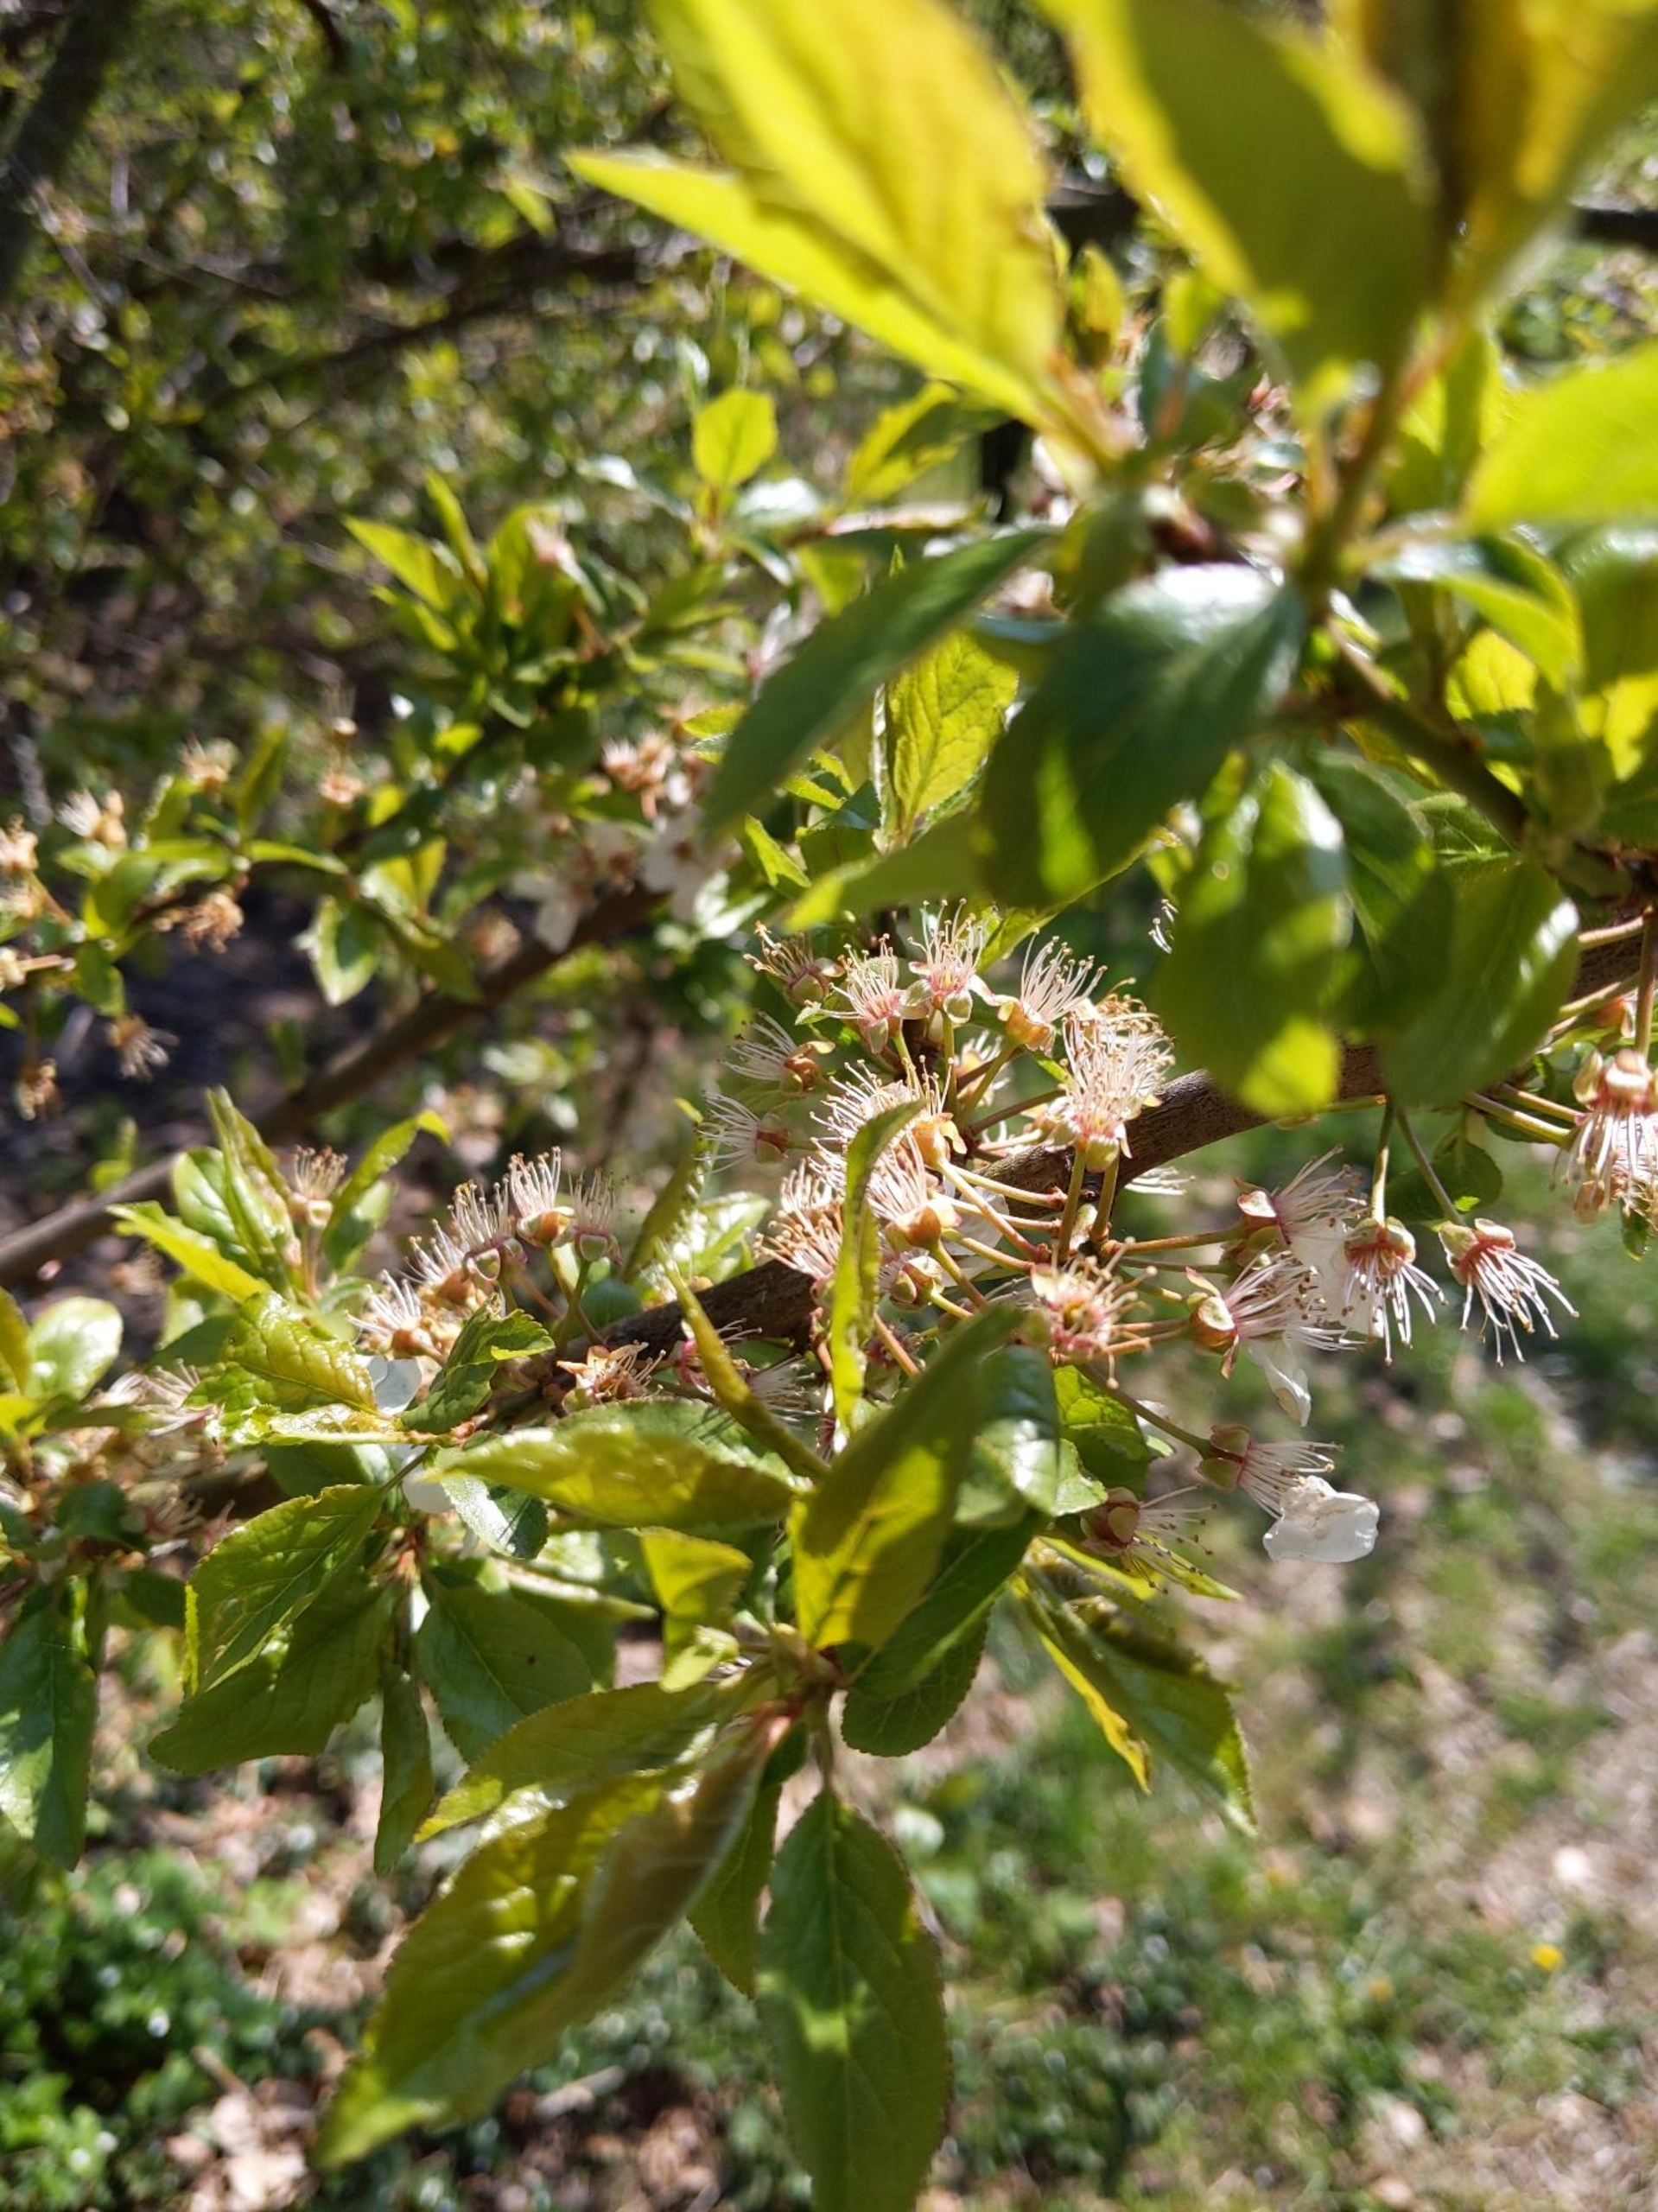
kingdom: Plantae
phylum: Tracheophyta
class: Magnoliopsida
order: Rosales
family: Rosaceae
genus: Prunus
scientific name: Prunus cerasifera
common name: Mirabel
